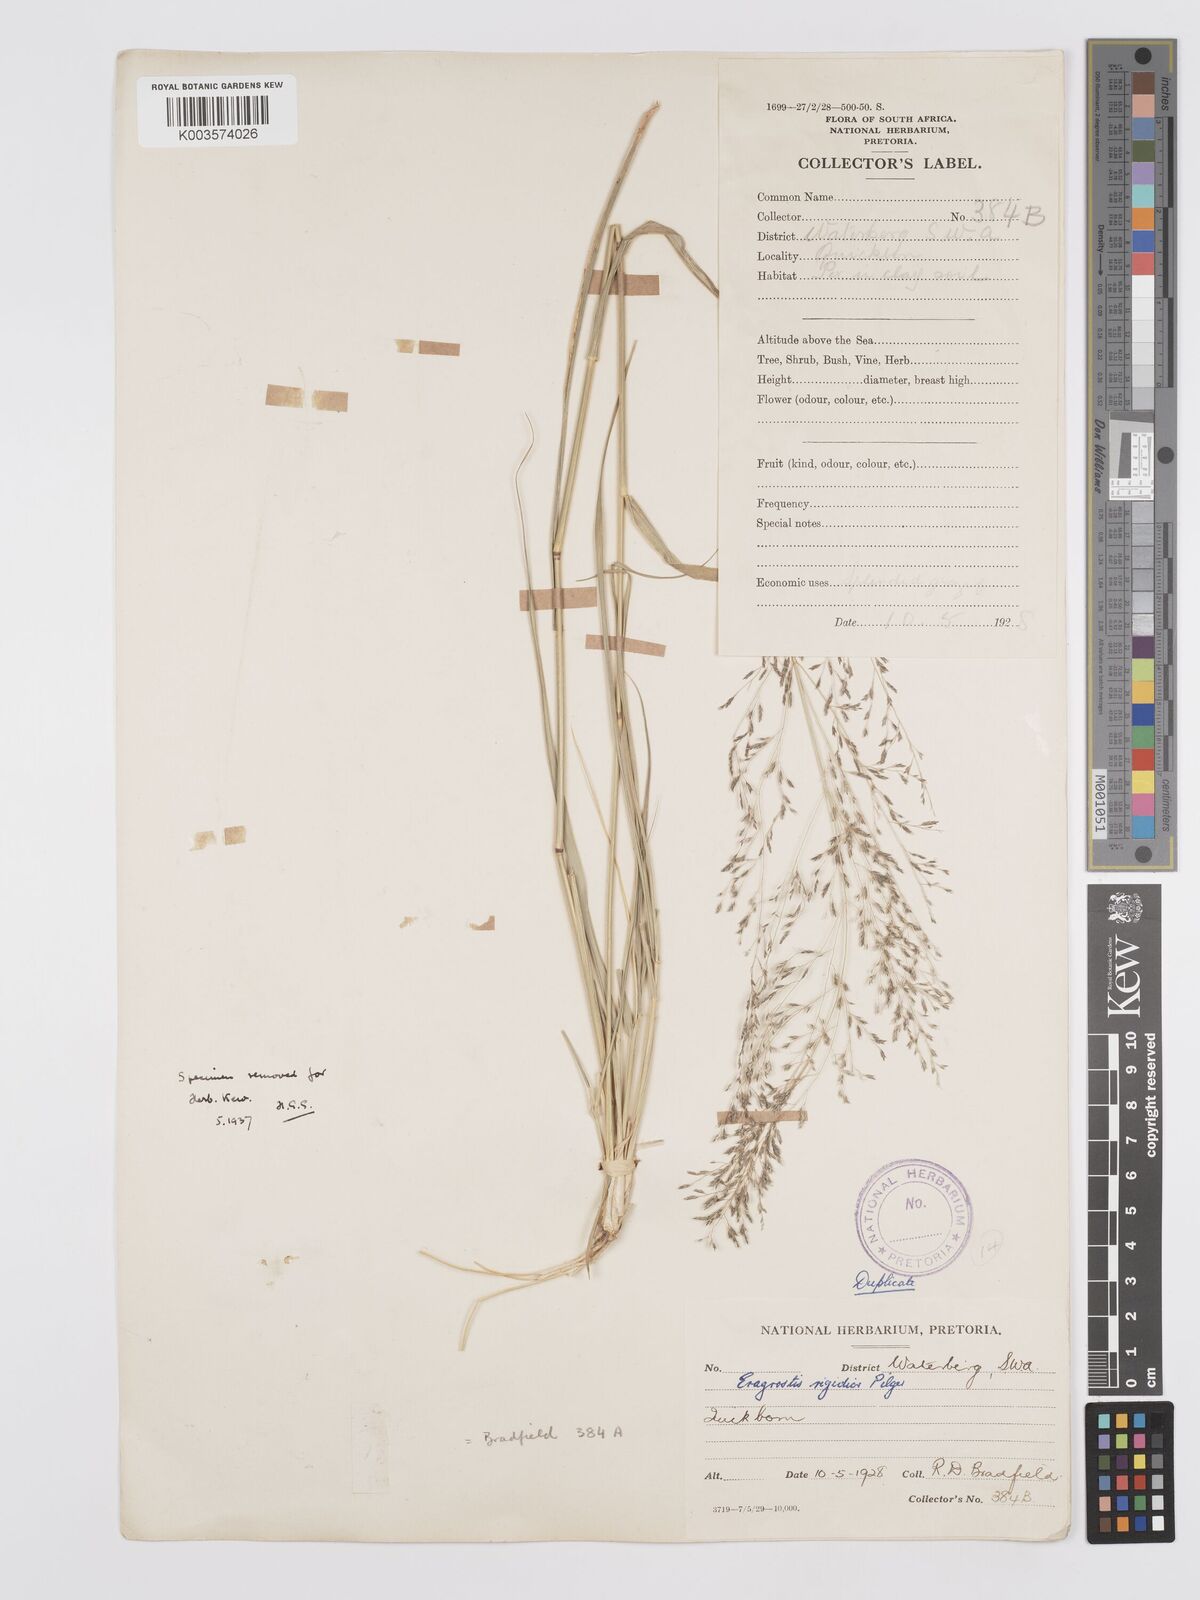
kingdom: Plantae
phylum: Tracheophyta
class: Liliopsida
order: Poales
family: Poaceae
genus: Eragrostis
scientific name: Eragrostis cylindriflora
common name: Cylinderflower lovegrass
